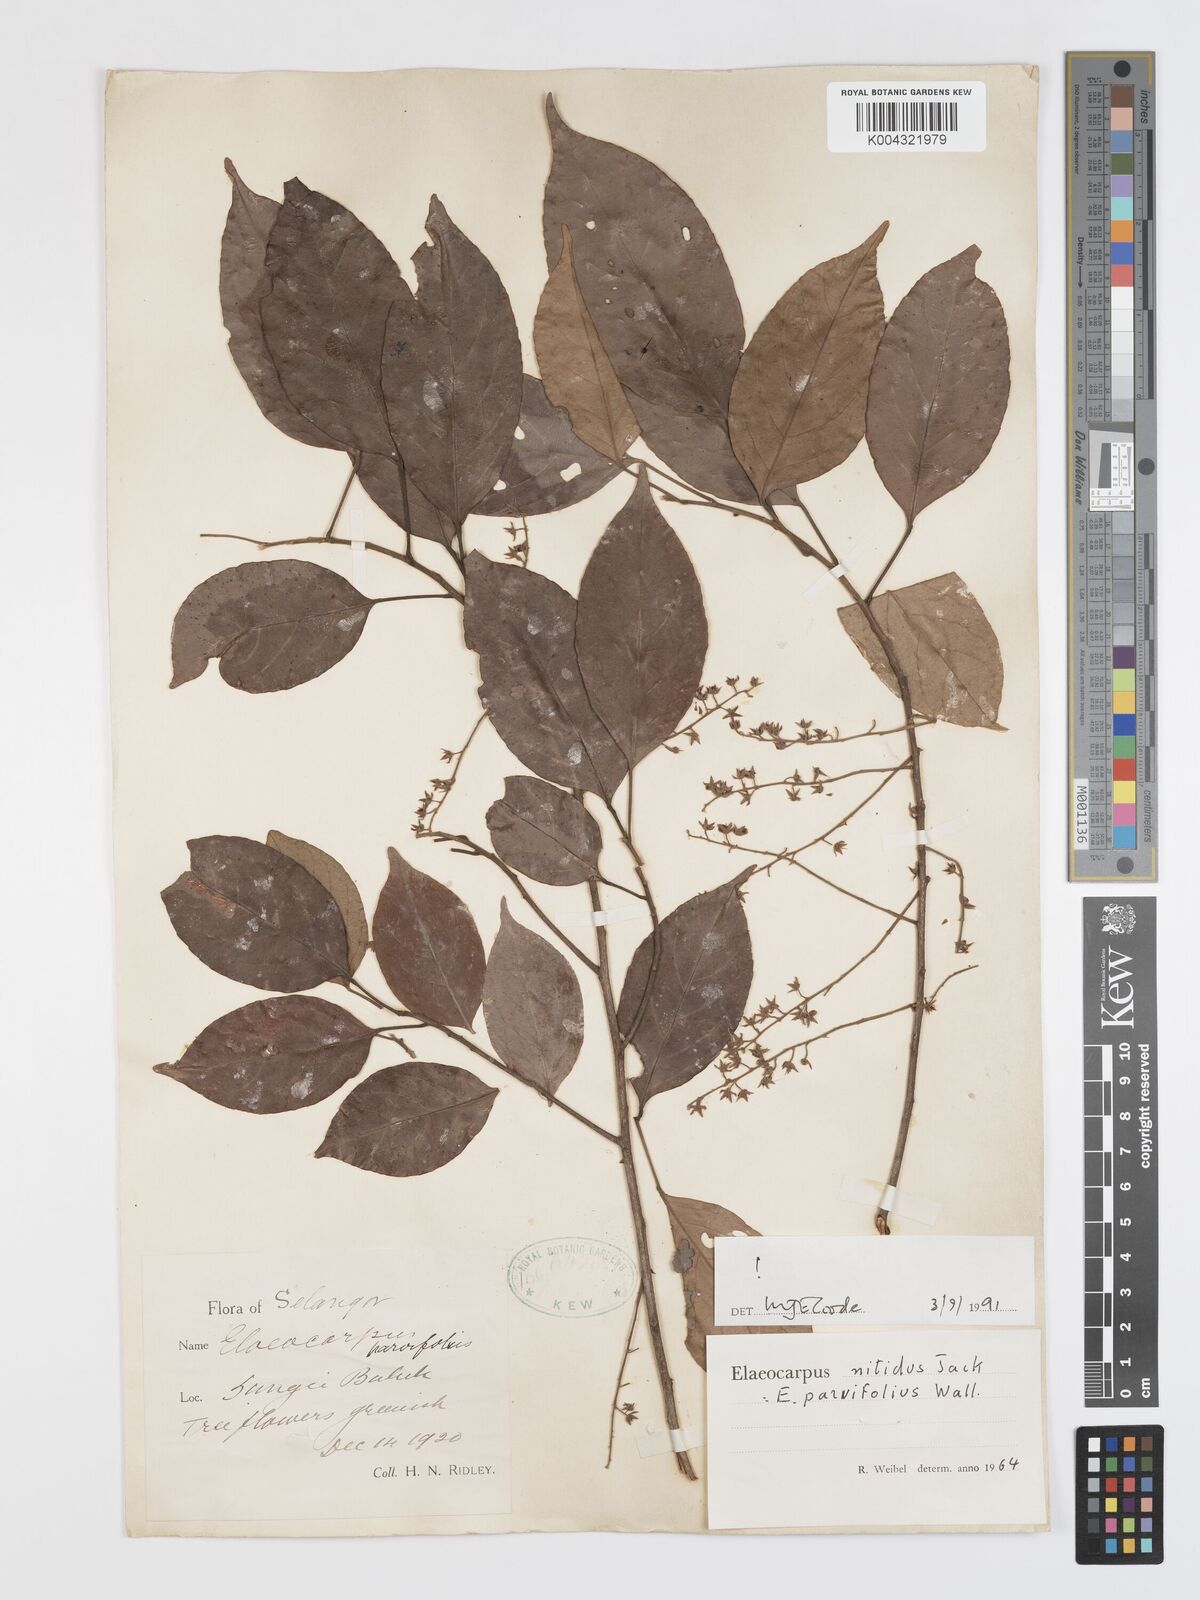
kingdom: Plantae
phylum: Tracheophyta
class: Magnoliopsida
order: Oxalidales
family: Elaeocarpaceae
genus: Elaeocarpus
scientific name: Elaeocarpus nitidus
